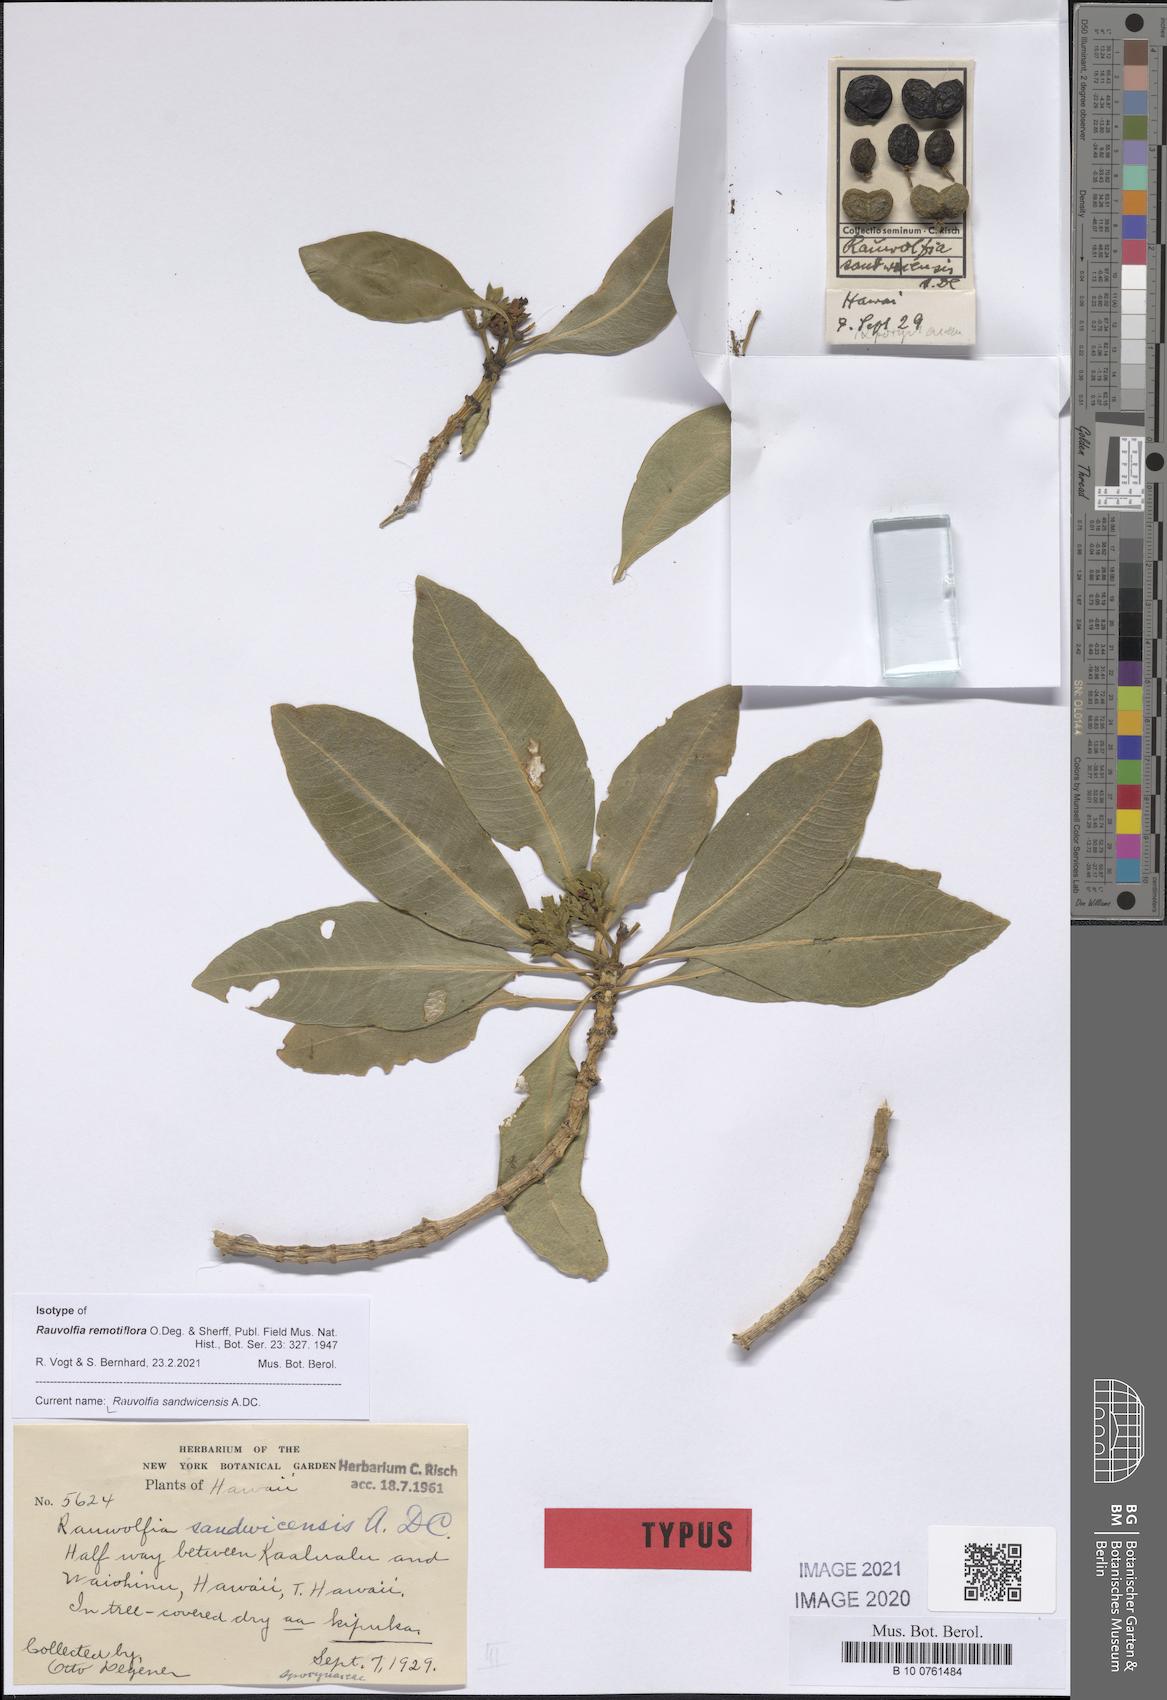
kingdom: Plantae
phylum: Tracheophyta
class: Magnoliopsida
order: Gentianales
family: Apocynaceae
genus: Rauvolfia
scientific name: Rauvolfia sandwicensis
